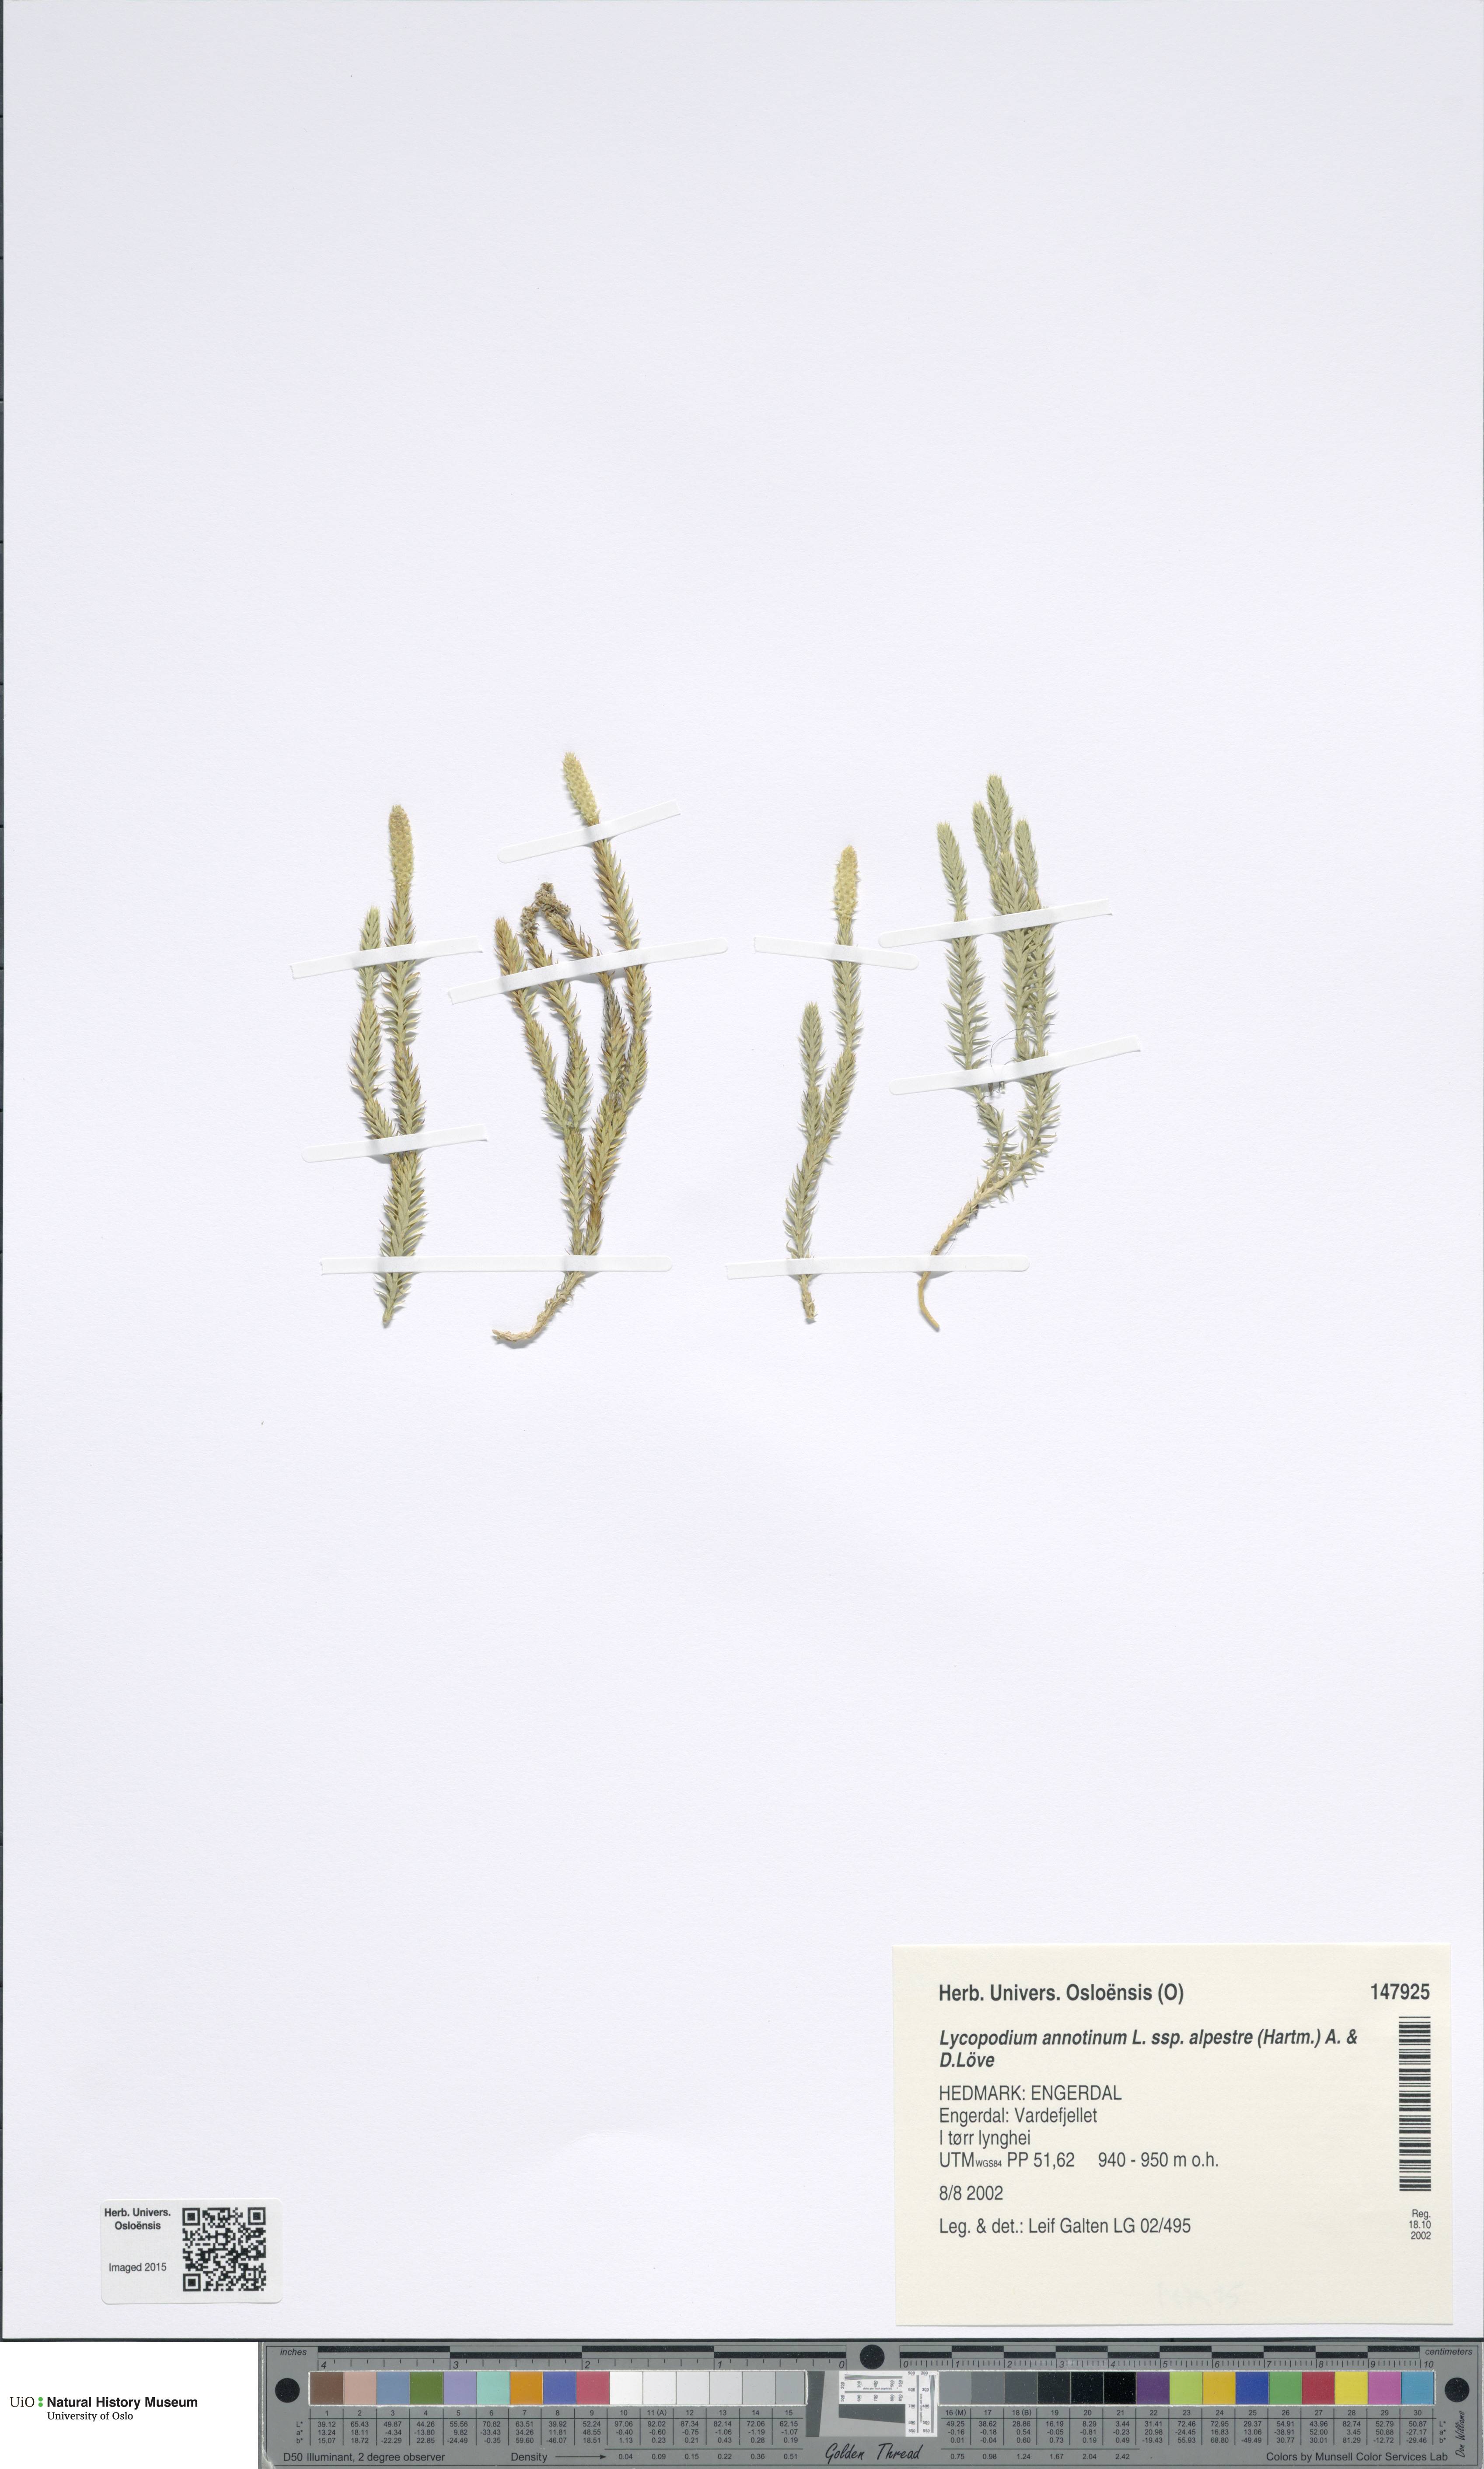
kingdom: Plantae
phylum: Tracheophyta
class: Lycopodiopsida
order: Lycopodiales
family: Lycopodiaceae
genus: Spinulum
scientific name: Spinulum annotinum
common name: Interrupted club-moss
